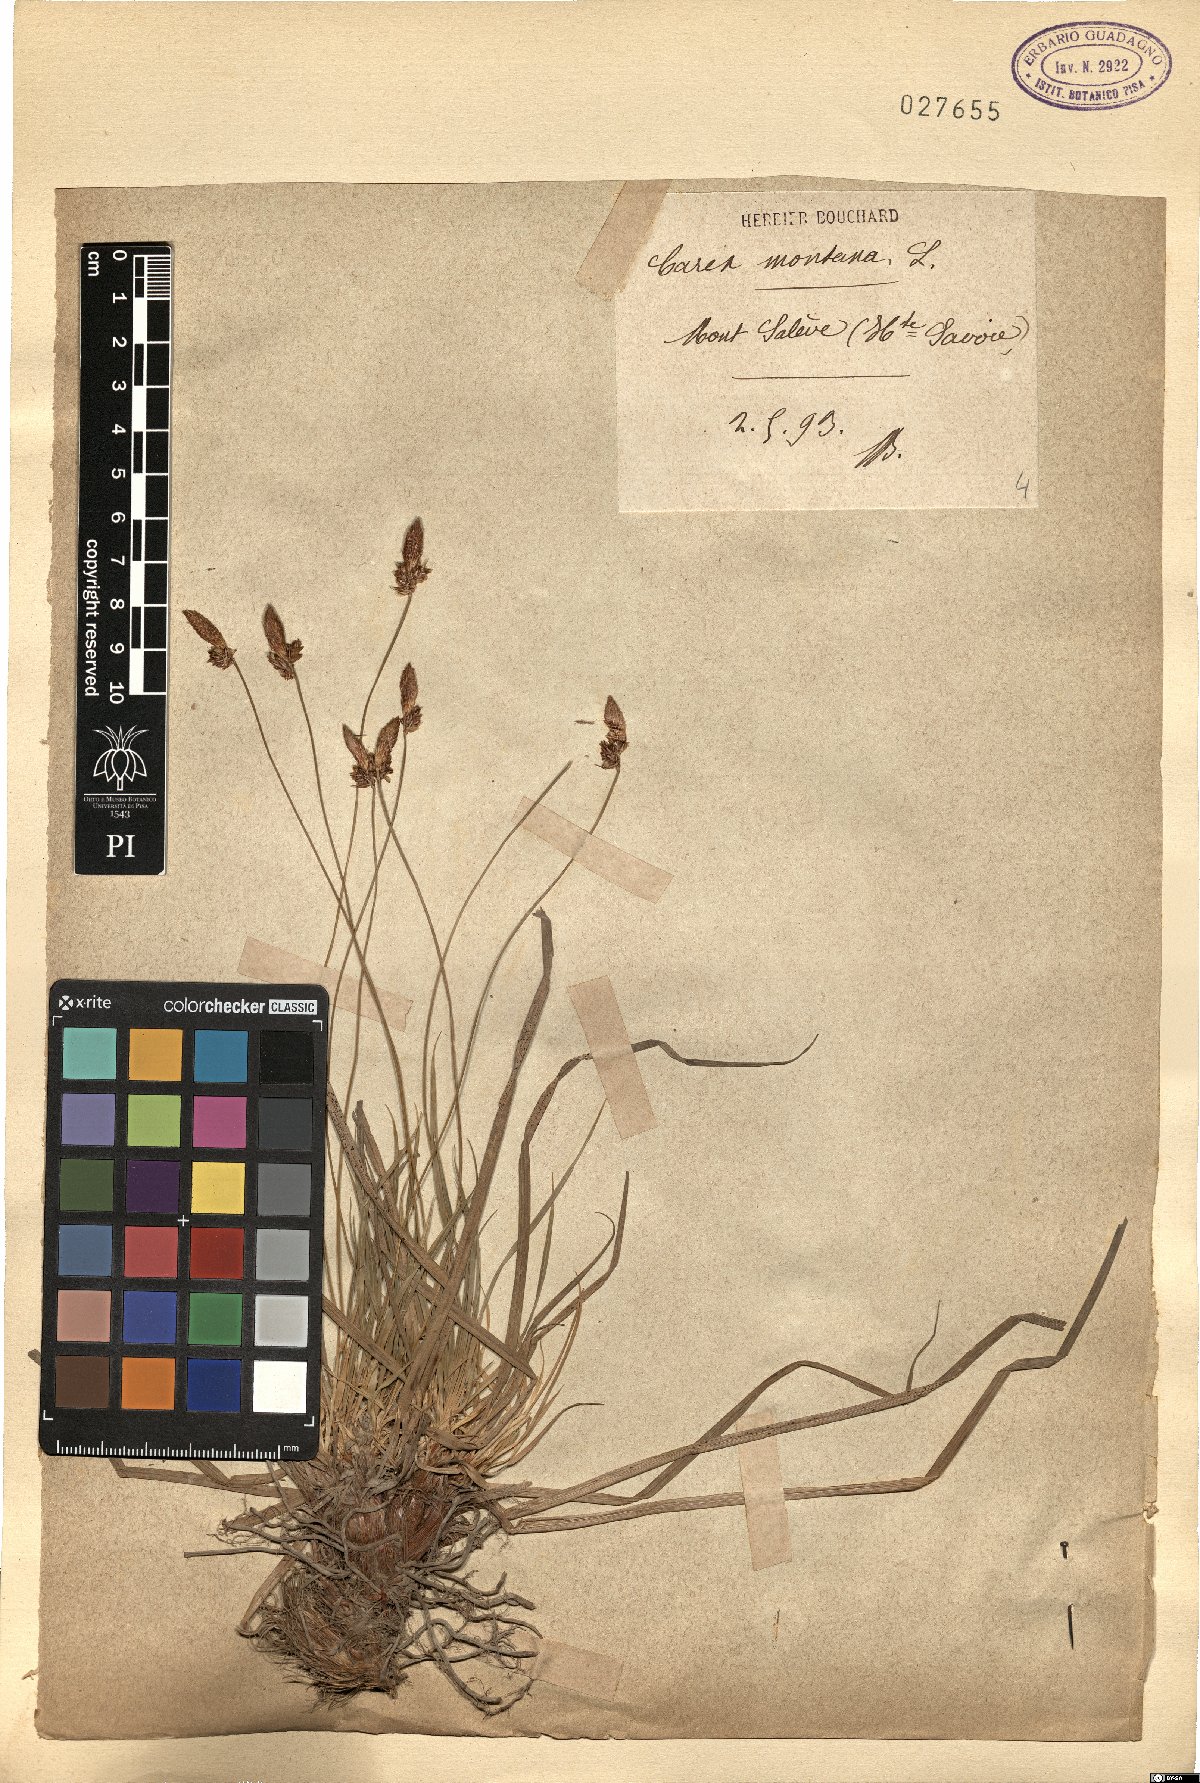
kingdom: Plantae
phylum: Tracheophyta
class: Liliopsida
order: Poales
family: Cyperaceae
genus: Carex
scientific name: Carex montana
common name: Soft-leaved sedge
